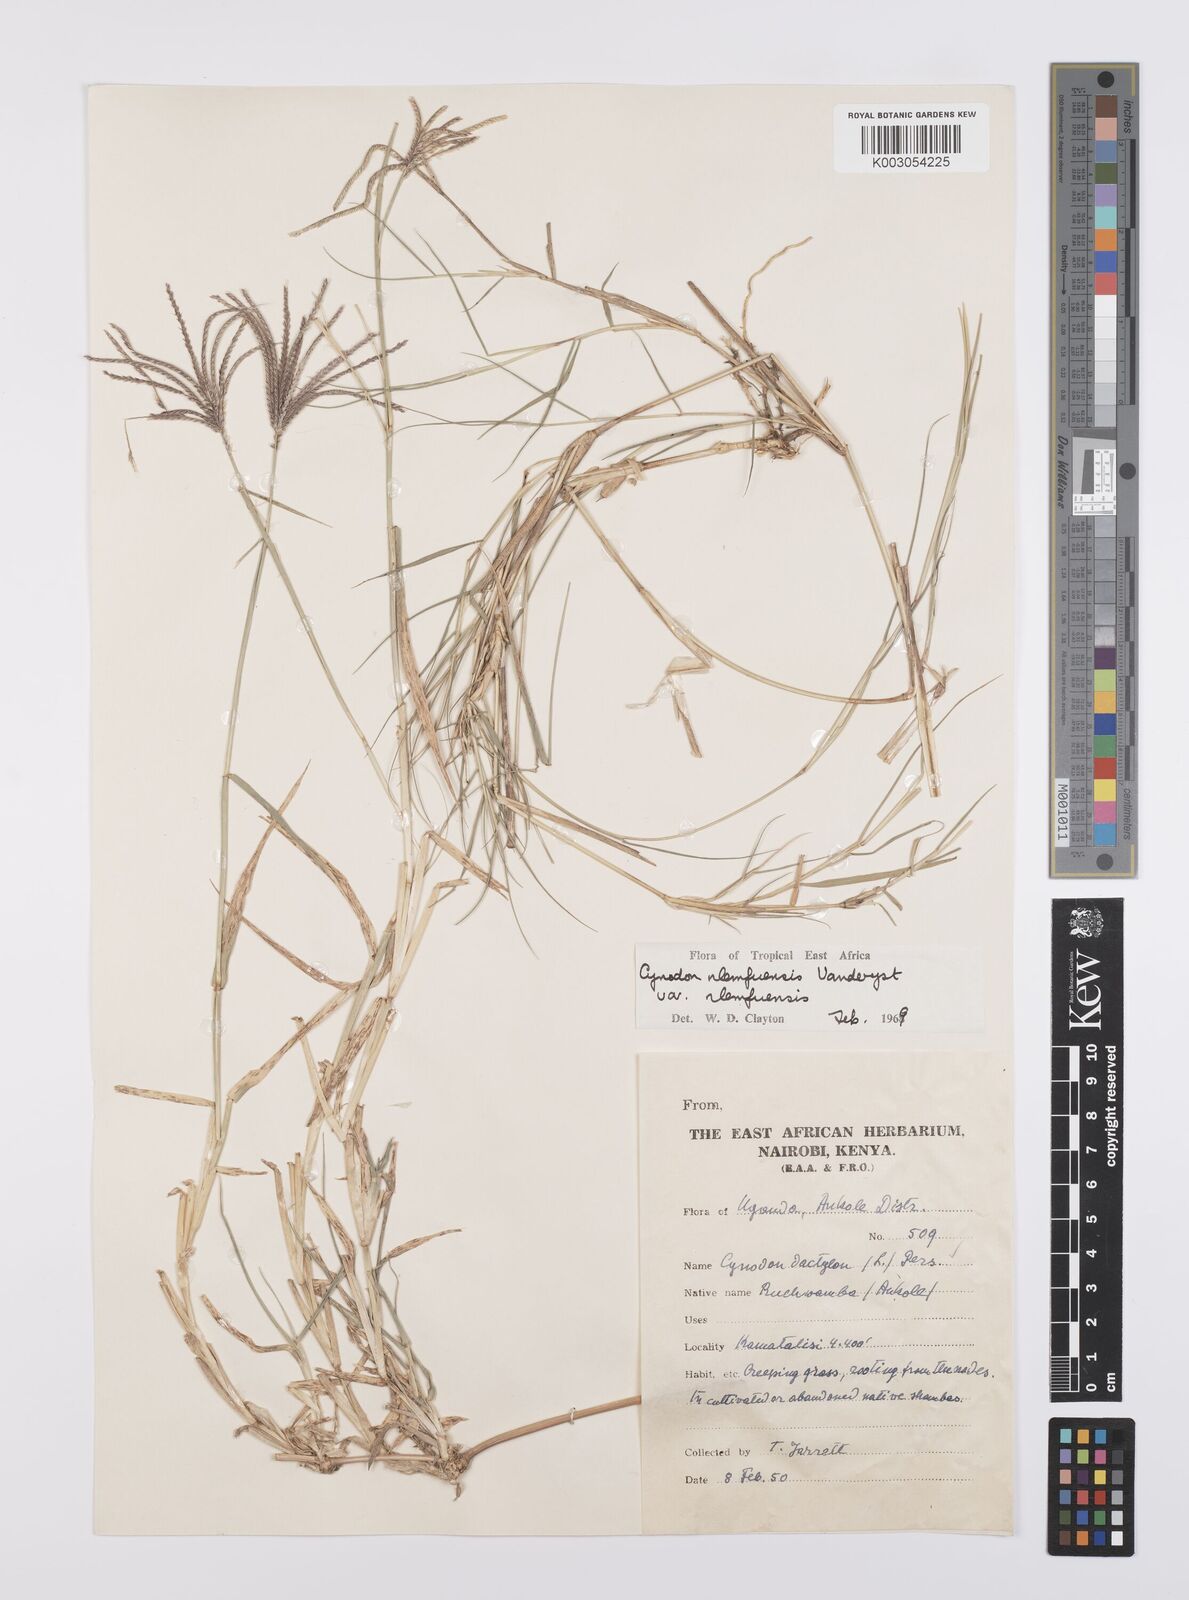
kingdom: Plantae
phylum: Tracheophyta
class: Liliopsida
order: Poales
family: Poaceae
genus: Cynodon
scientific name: Cynodon nlemfuensis
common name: African bermudagrass
